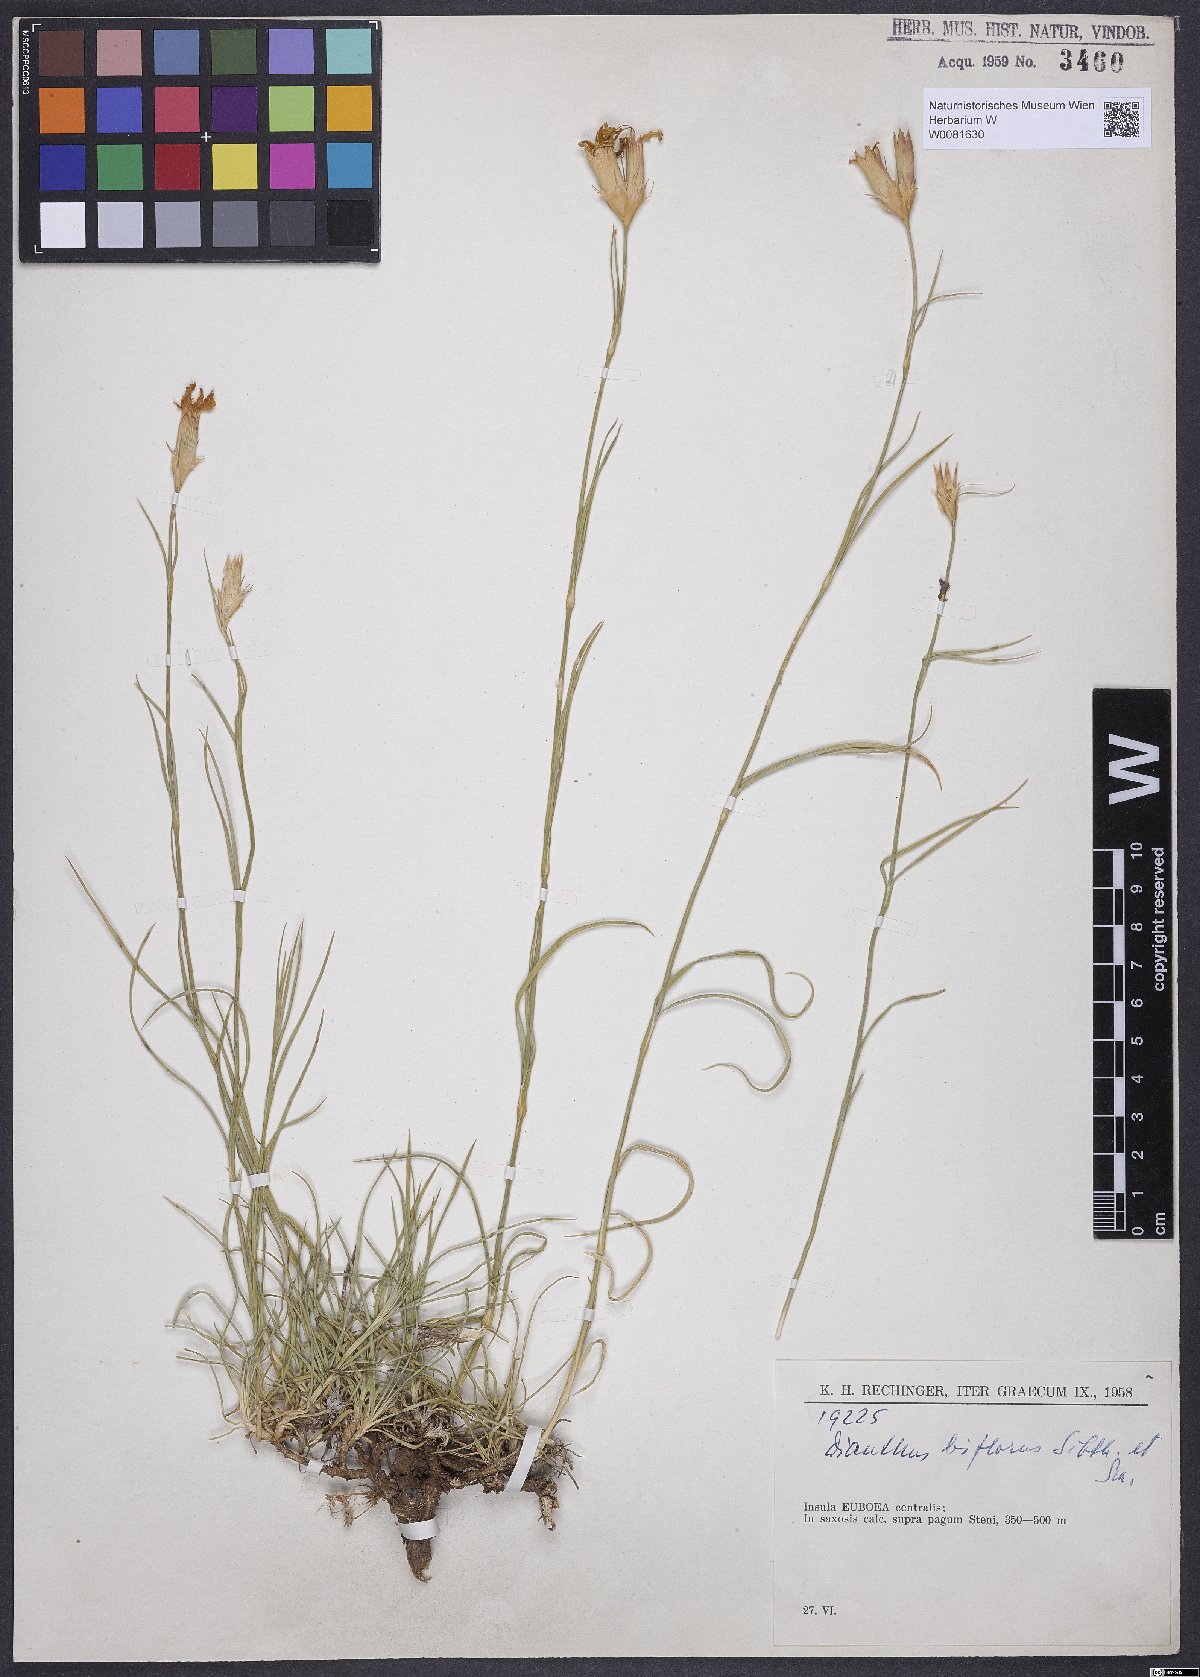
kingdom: Plantae
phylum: Tracheophyta
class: Magnoliopsida
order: Caryophyllales
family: Caryophyllaceae
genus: Dianthus
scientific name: Dianthus biflorus
